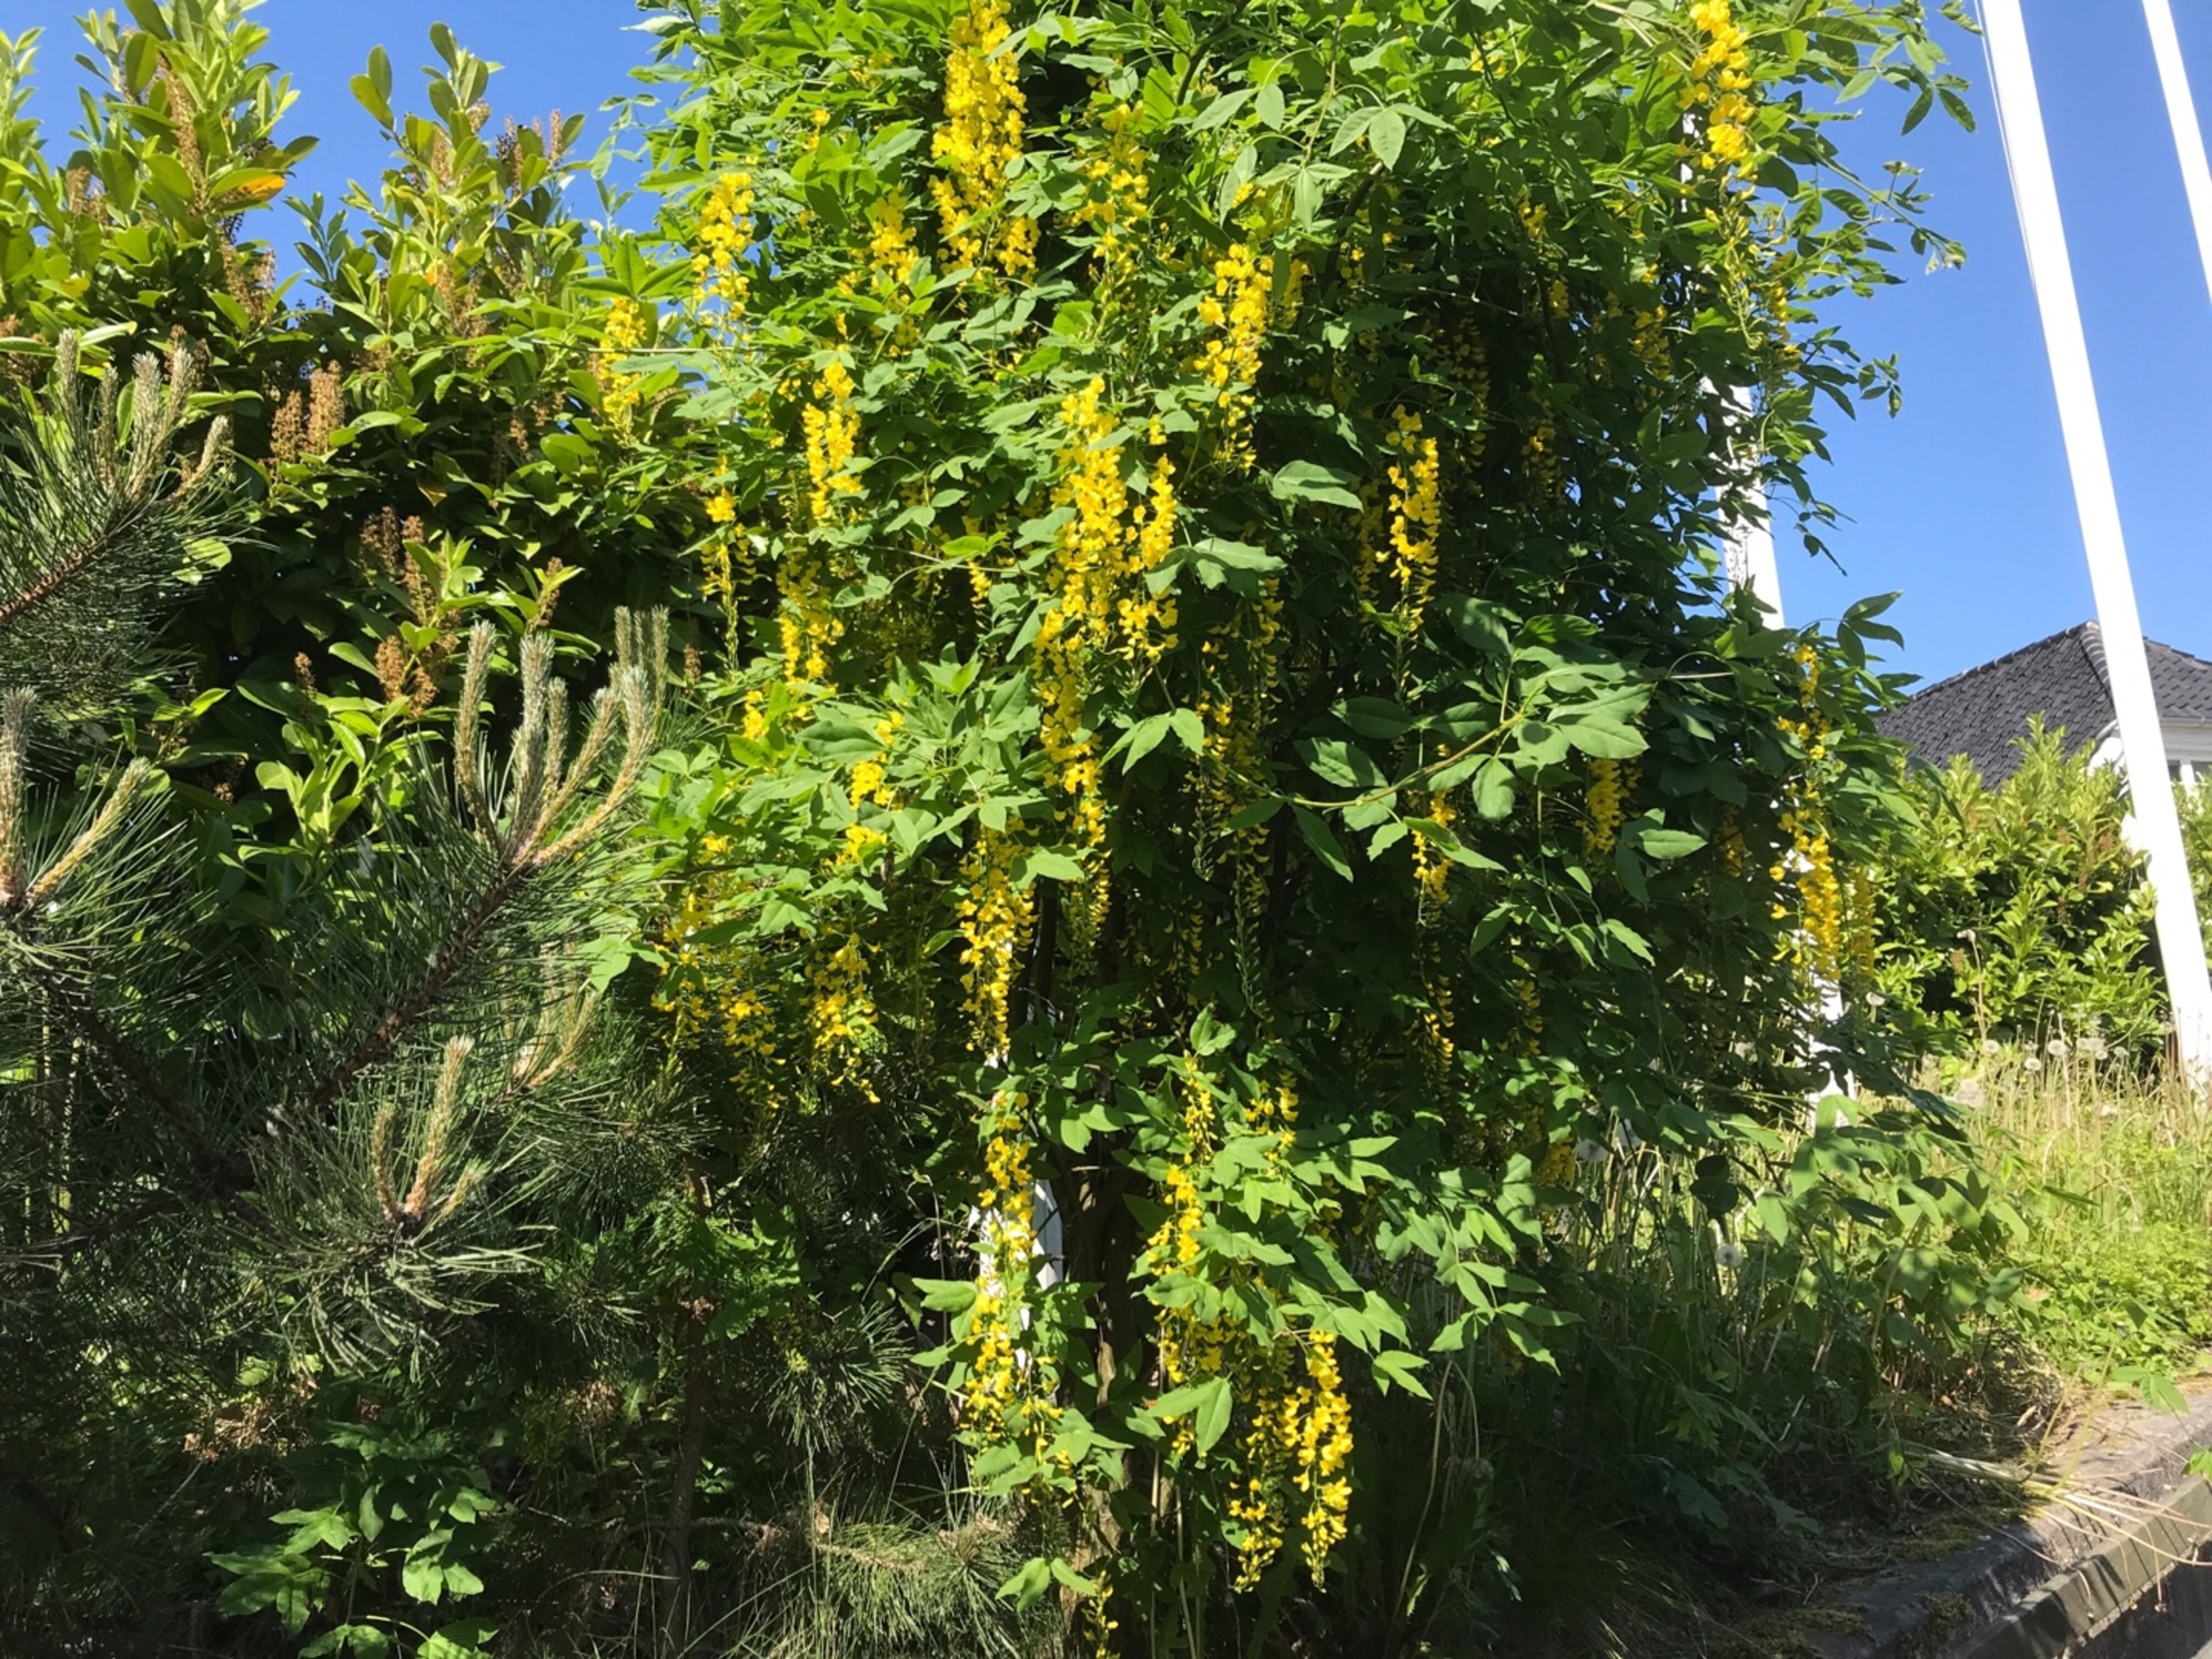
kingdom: Plantae
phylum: Tracheophyta
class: Magnoliopsida
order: Fabales
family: Fabaceae
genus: Laburnum
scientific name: Laburnum anagyroides
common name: Guldregn
